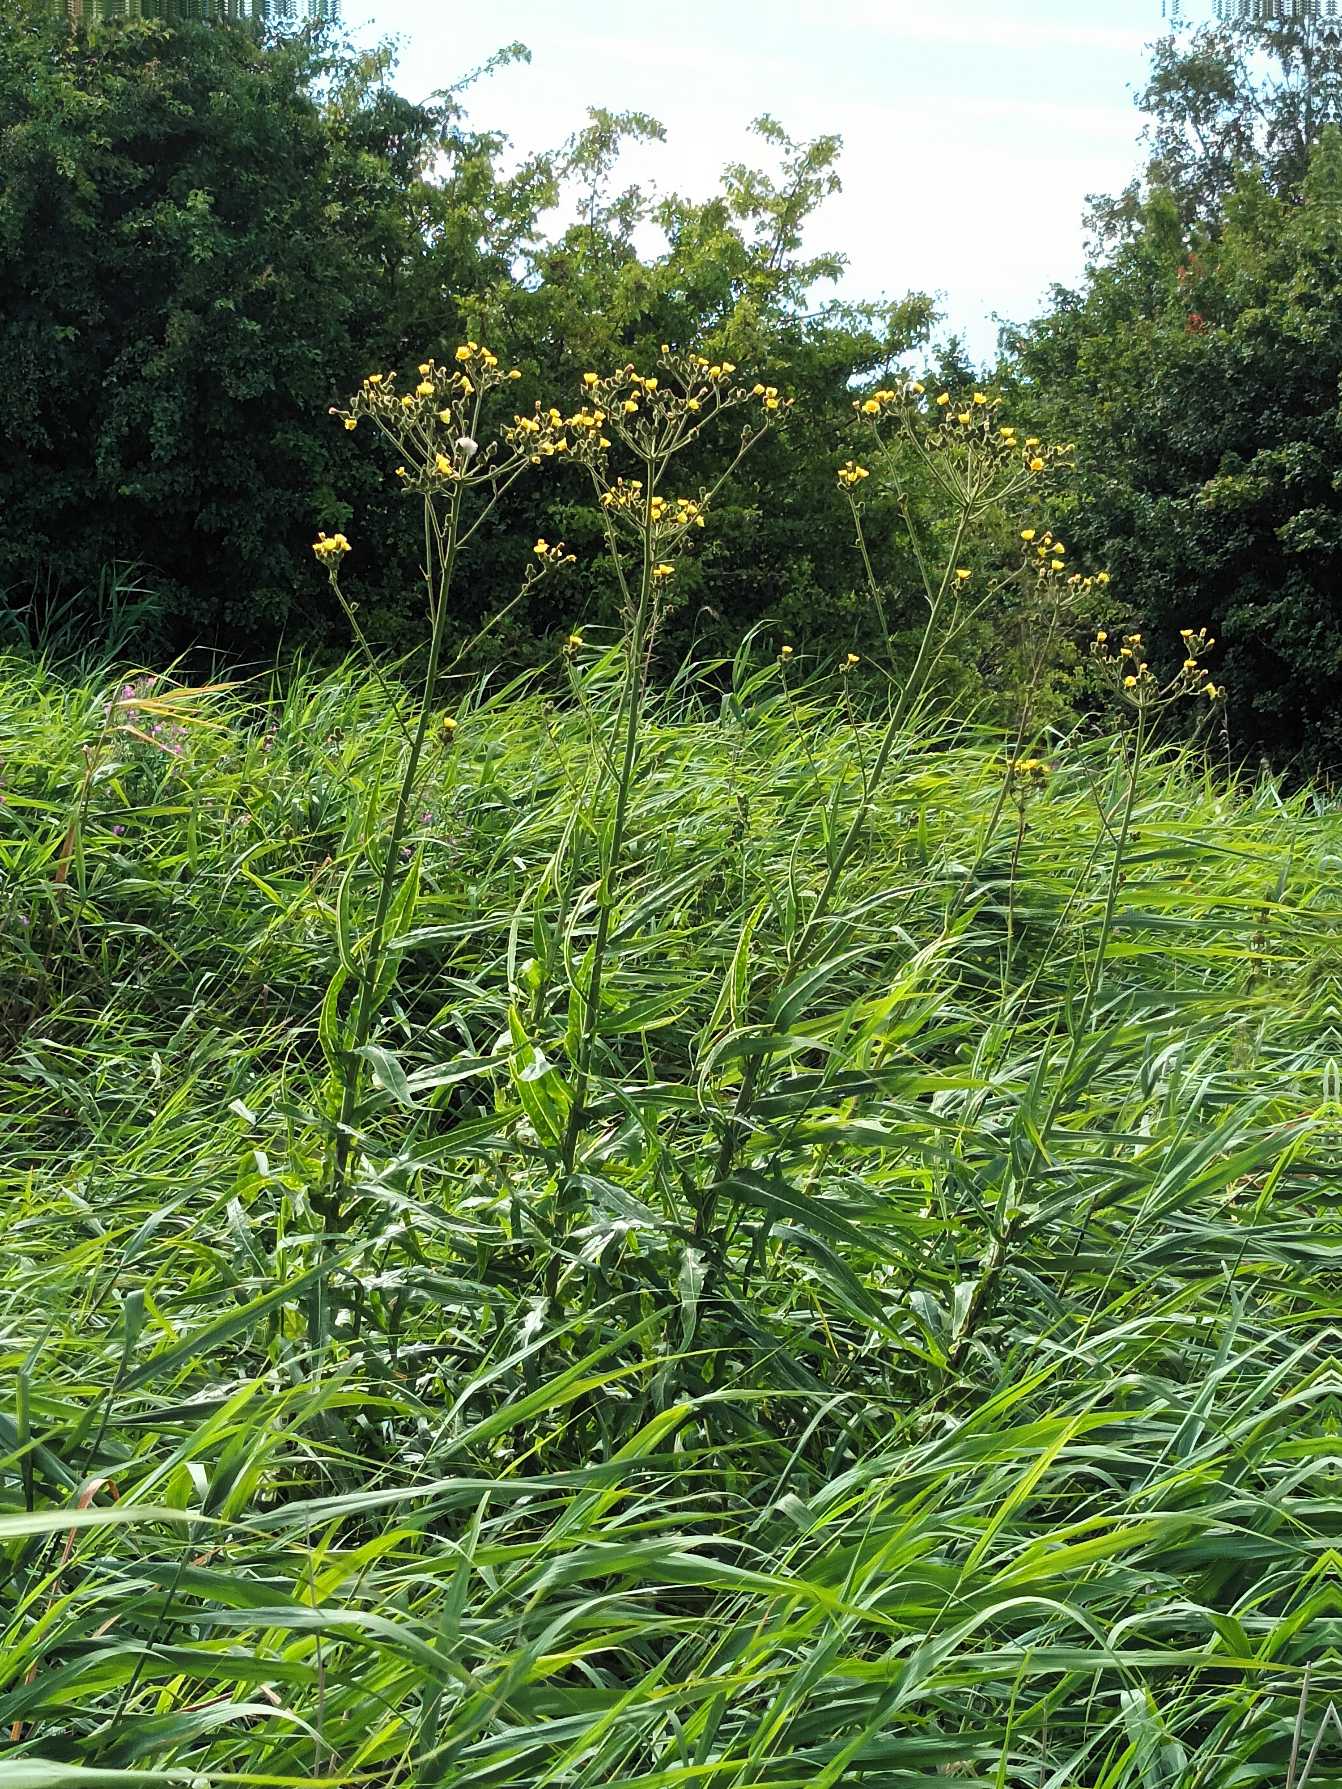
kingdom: Plantae
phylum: Tracheophyta
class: Magnoliopsida
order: Asterales
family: Asteraceae
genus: Sonchus
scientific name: Sonchus palustris
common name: Kær-svinemælk
